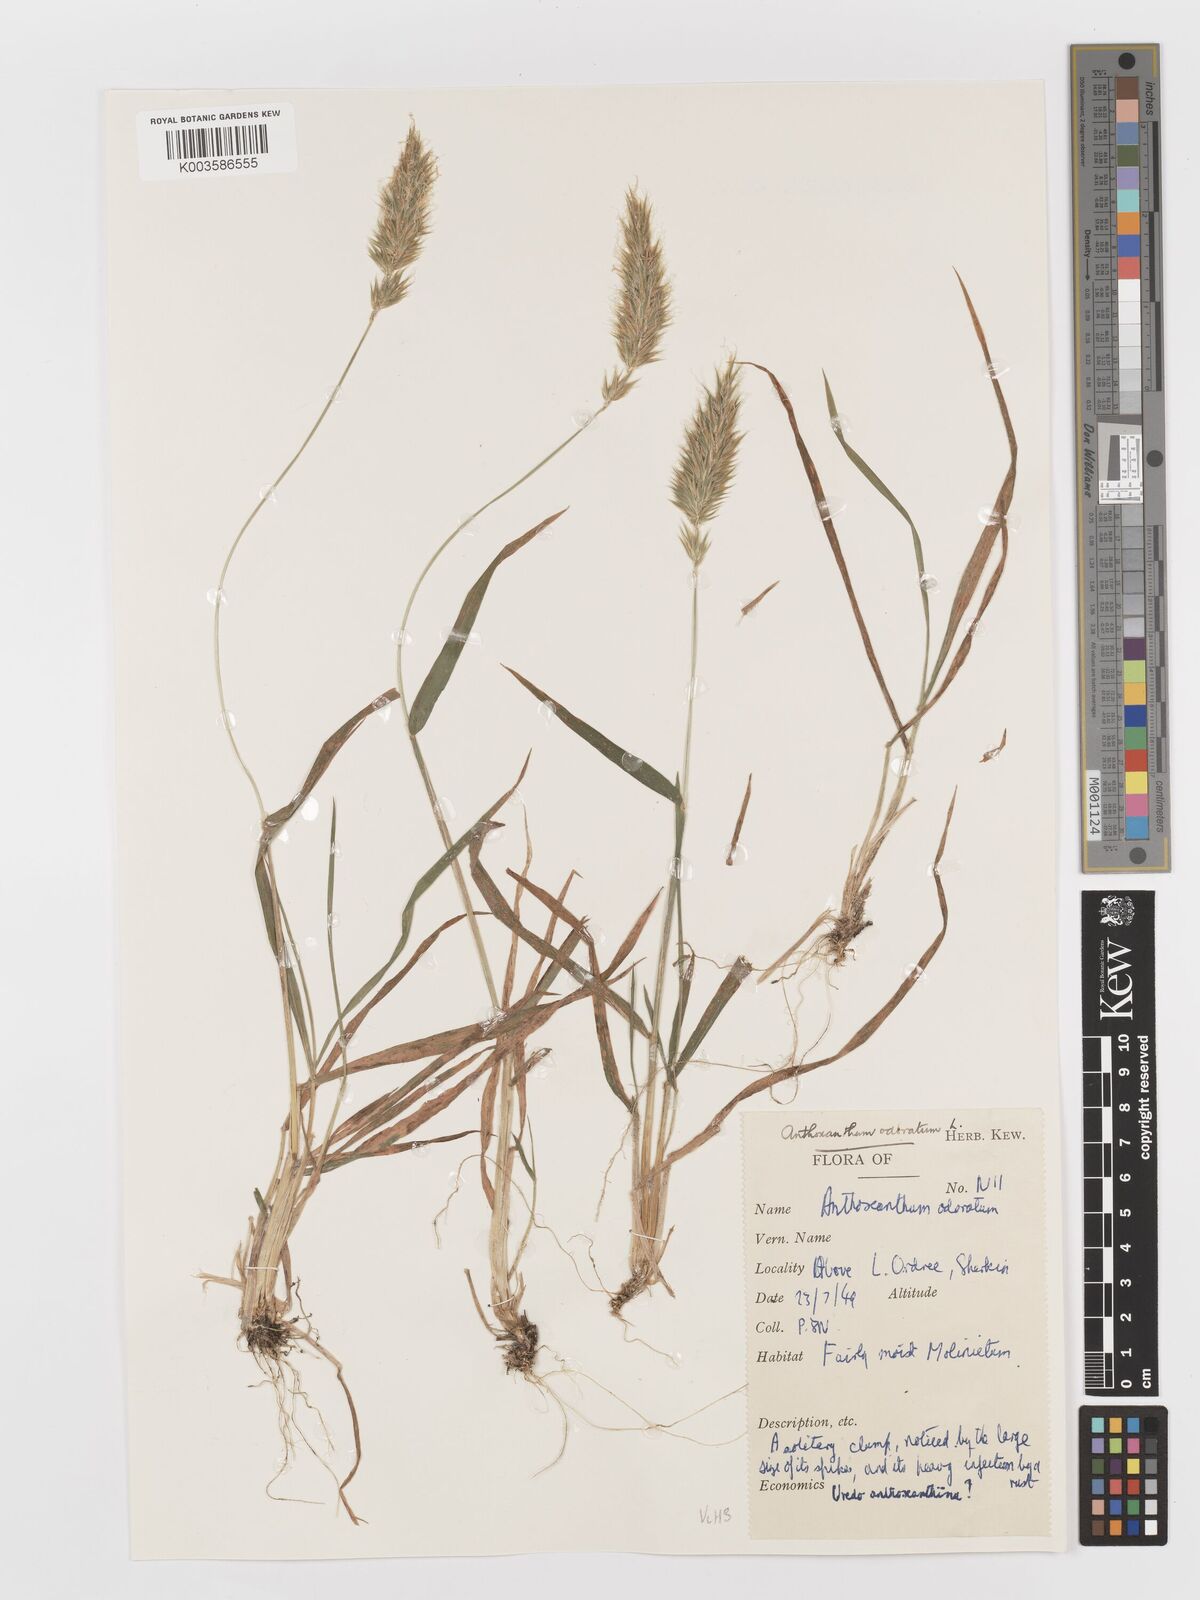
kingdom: Plantae
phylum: Tracheophyta
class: Liliopsida
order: Poales
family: Poaceae
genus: Anthoxanthum
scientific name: Anthoxanthum odoratum
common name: Sweet vernalgrass
